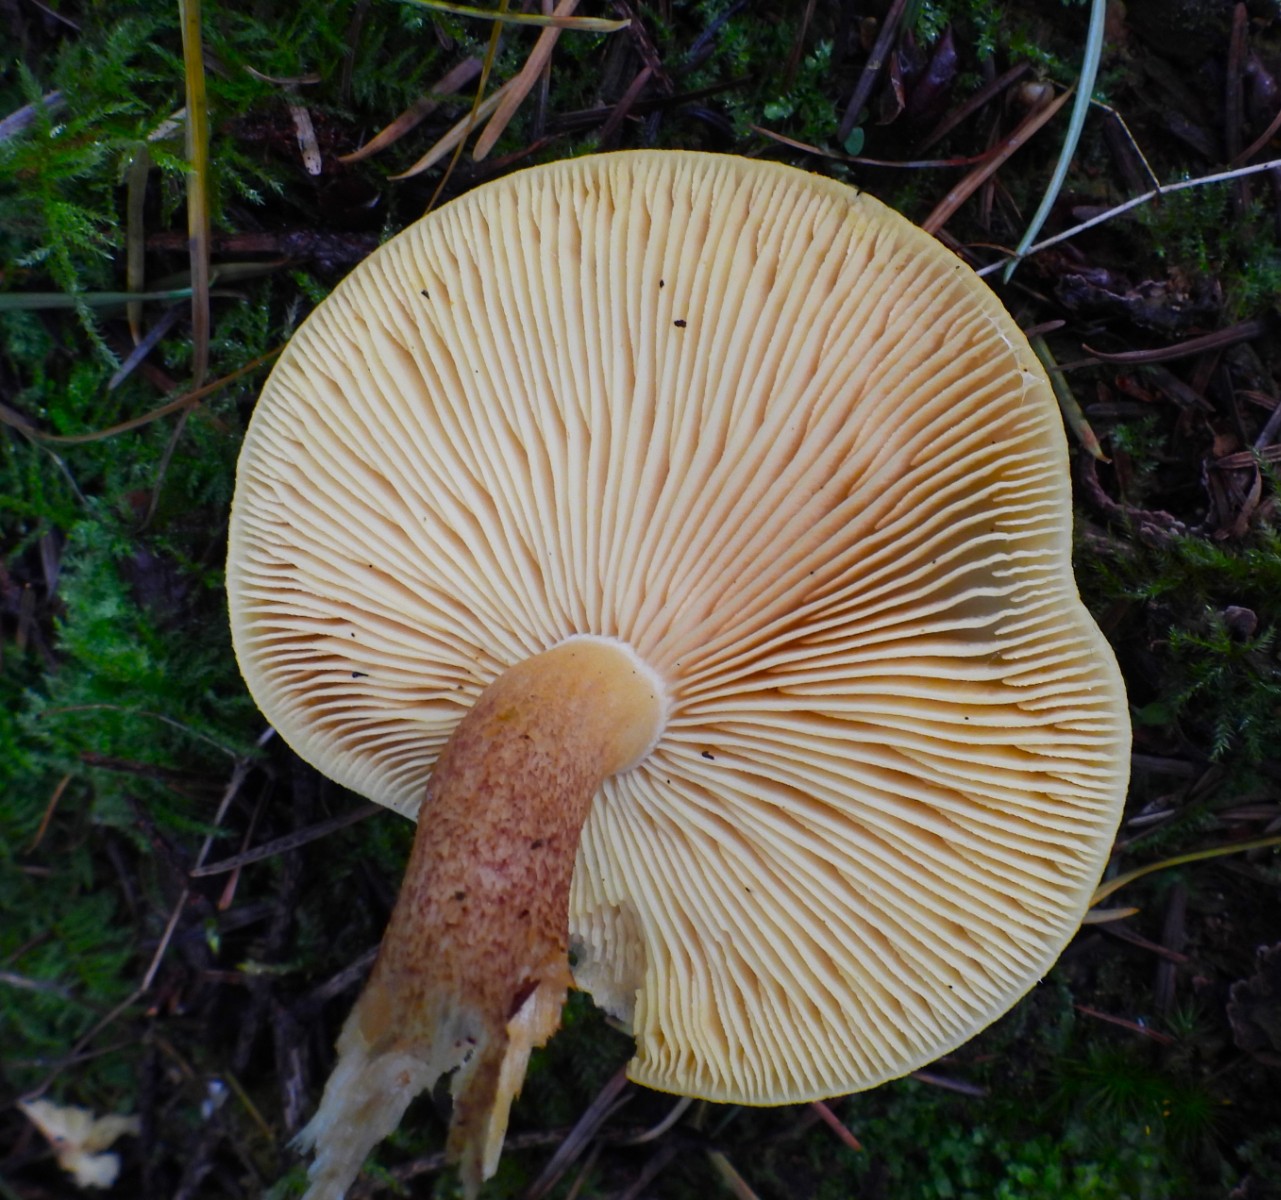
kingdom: Fungi
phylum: Basidiomycota
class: Agaricomycetes
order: Agaricales
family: Tricholomataceae
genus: Tricholomopsis
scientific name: Tricholomopsis rutilans
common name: purpur-væbnerhat
